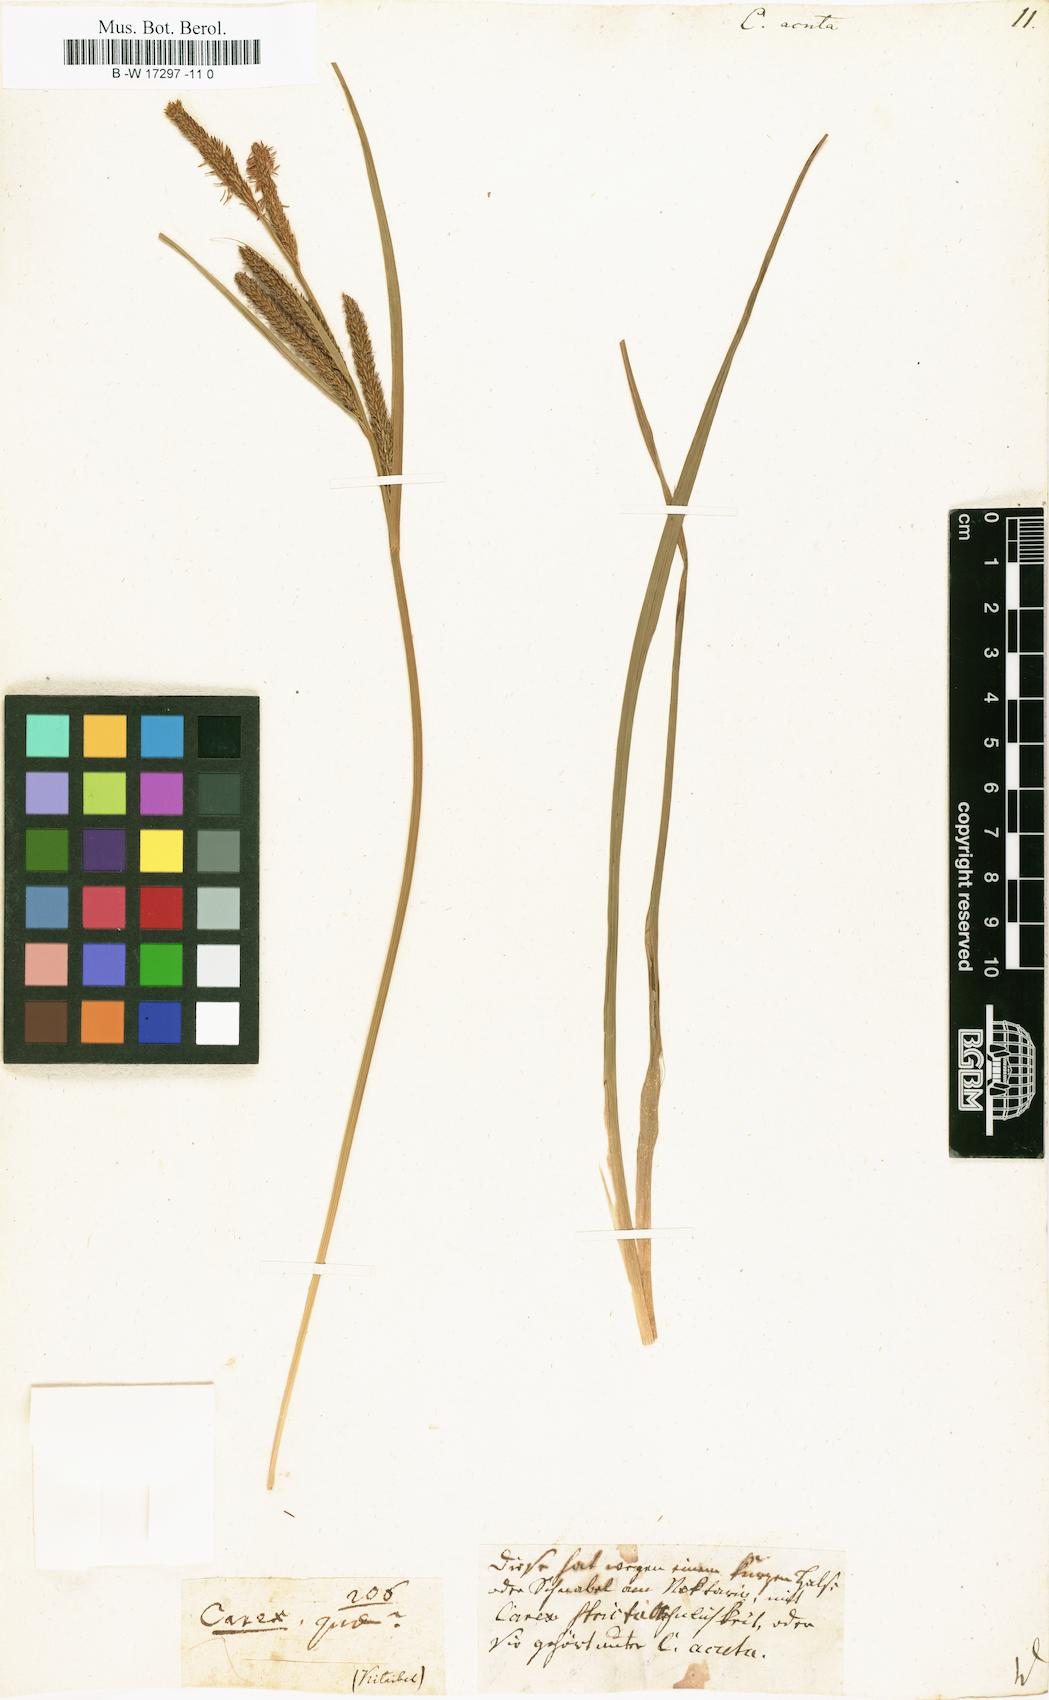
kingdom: Plantae
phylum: Tracheophyta
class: Liliopsida
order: Poales
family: Cyperaceae
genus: Carex
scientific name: Carex acuta
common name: Slender tufted-sedge
